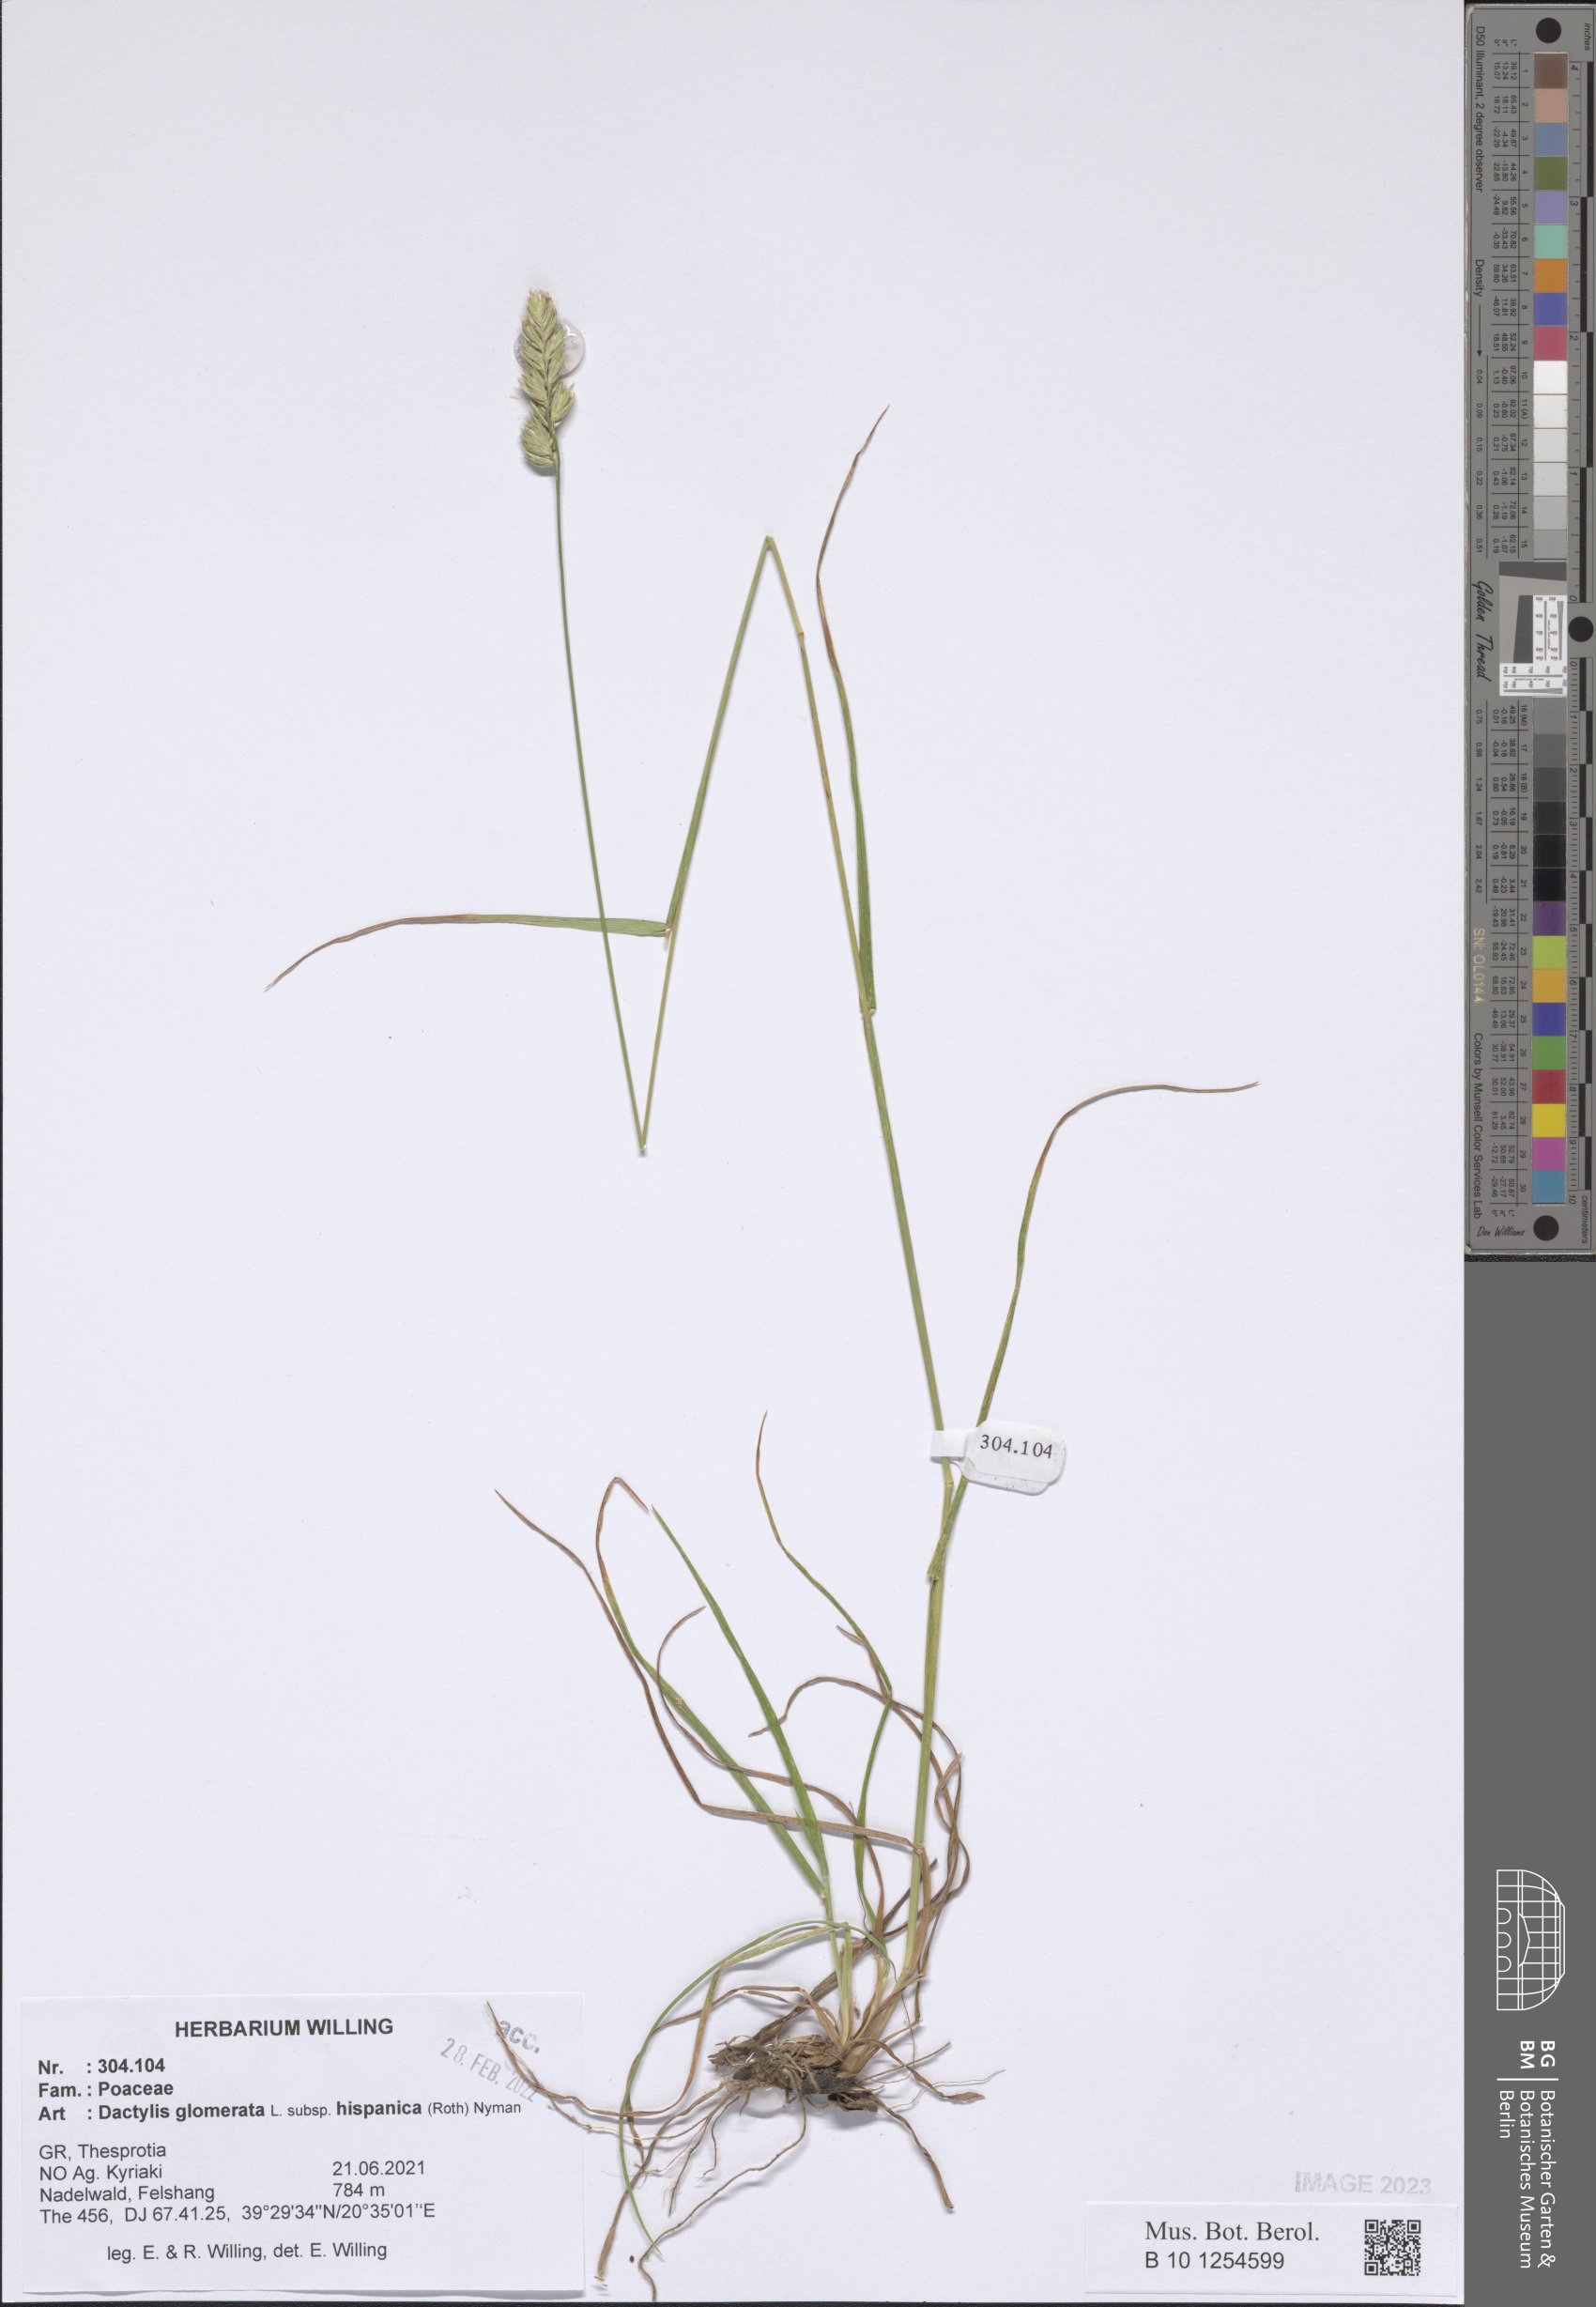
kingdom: Plantae
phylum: Tracheophyta
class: Liliopsida
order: Poales
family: Poaceae
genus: Dactylis
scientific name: Dactylis glomerata
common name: Orchardgrass
